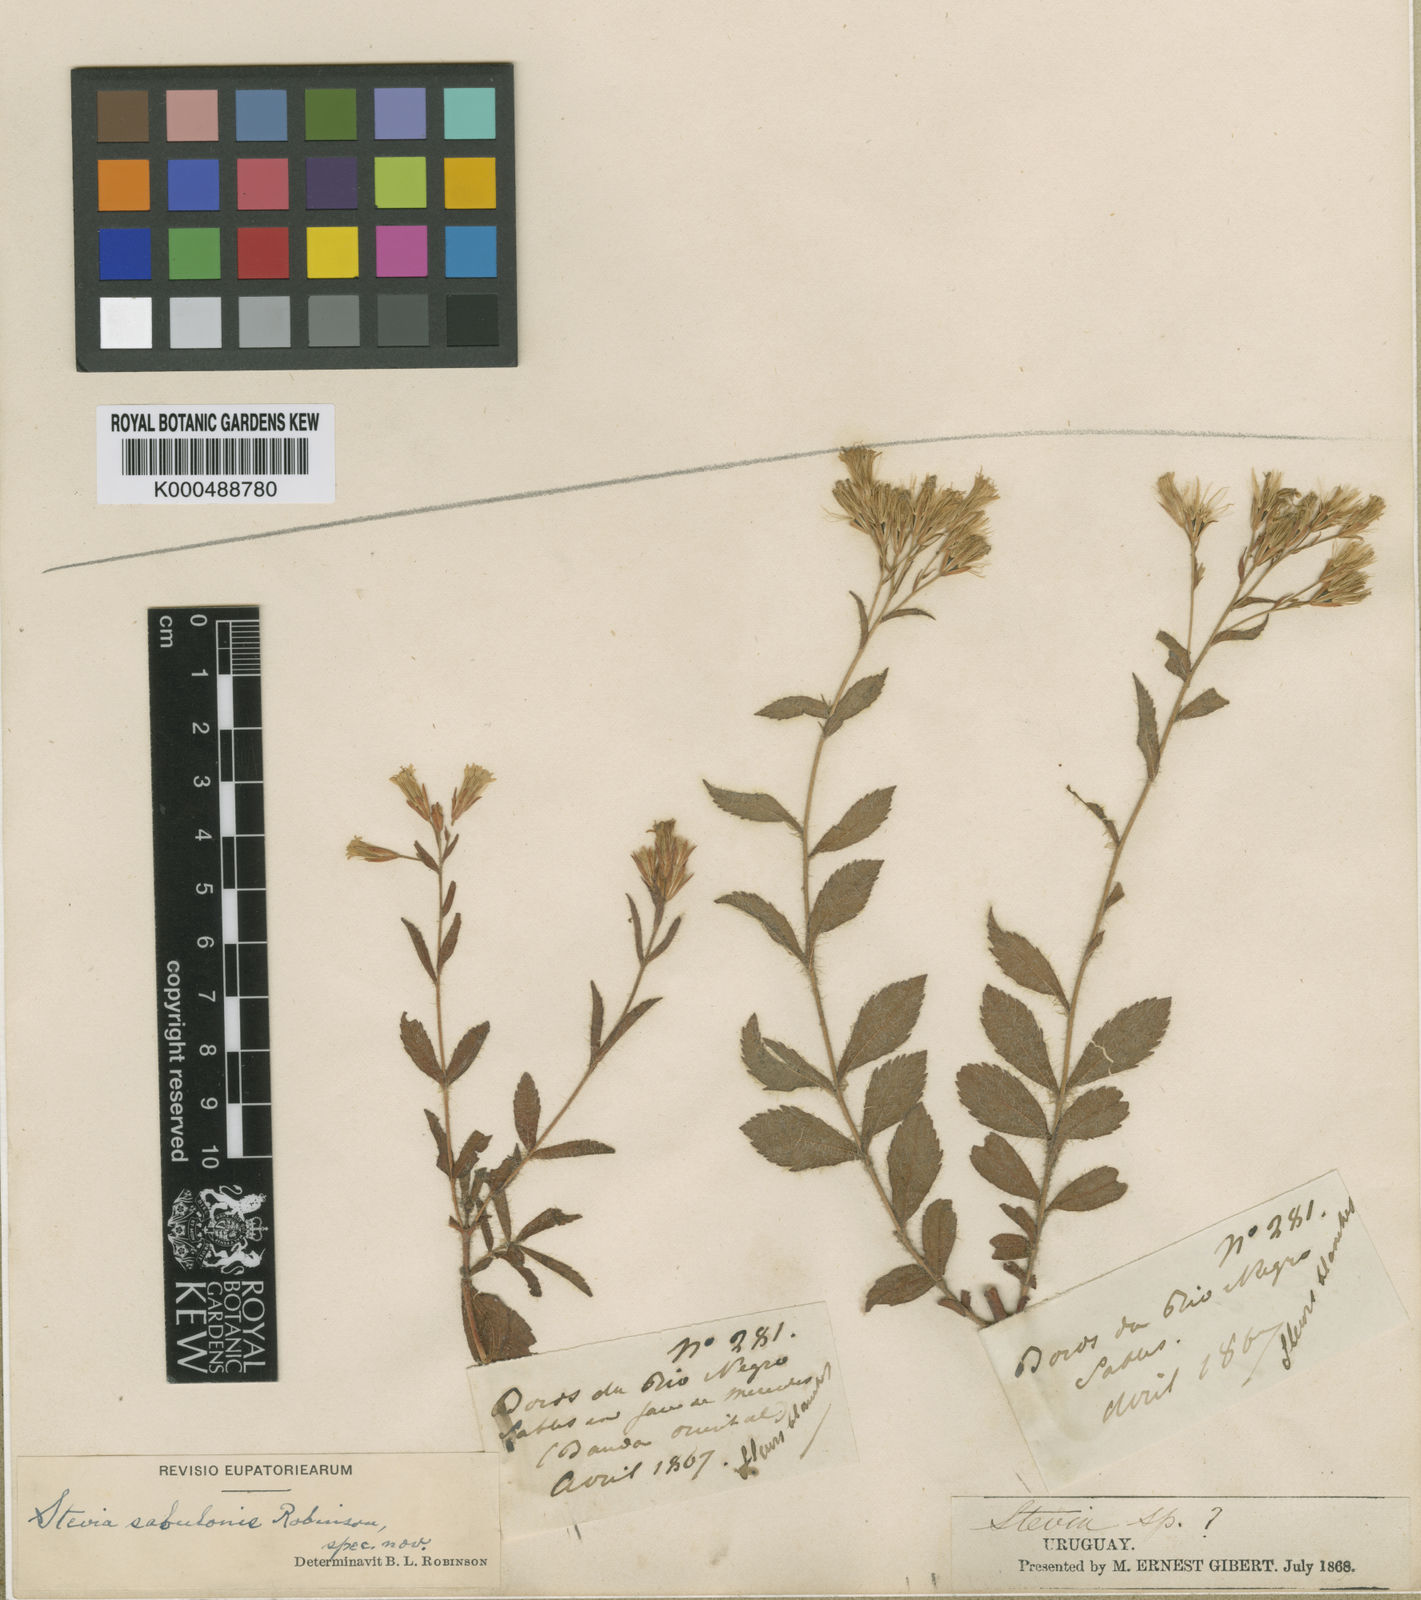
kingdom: Plantae
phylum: Tracheophyta
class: Magnoliopsida
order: Asterales
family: Asteraceae
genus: Stevia
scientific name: Stevia sabulonis
